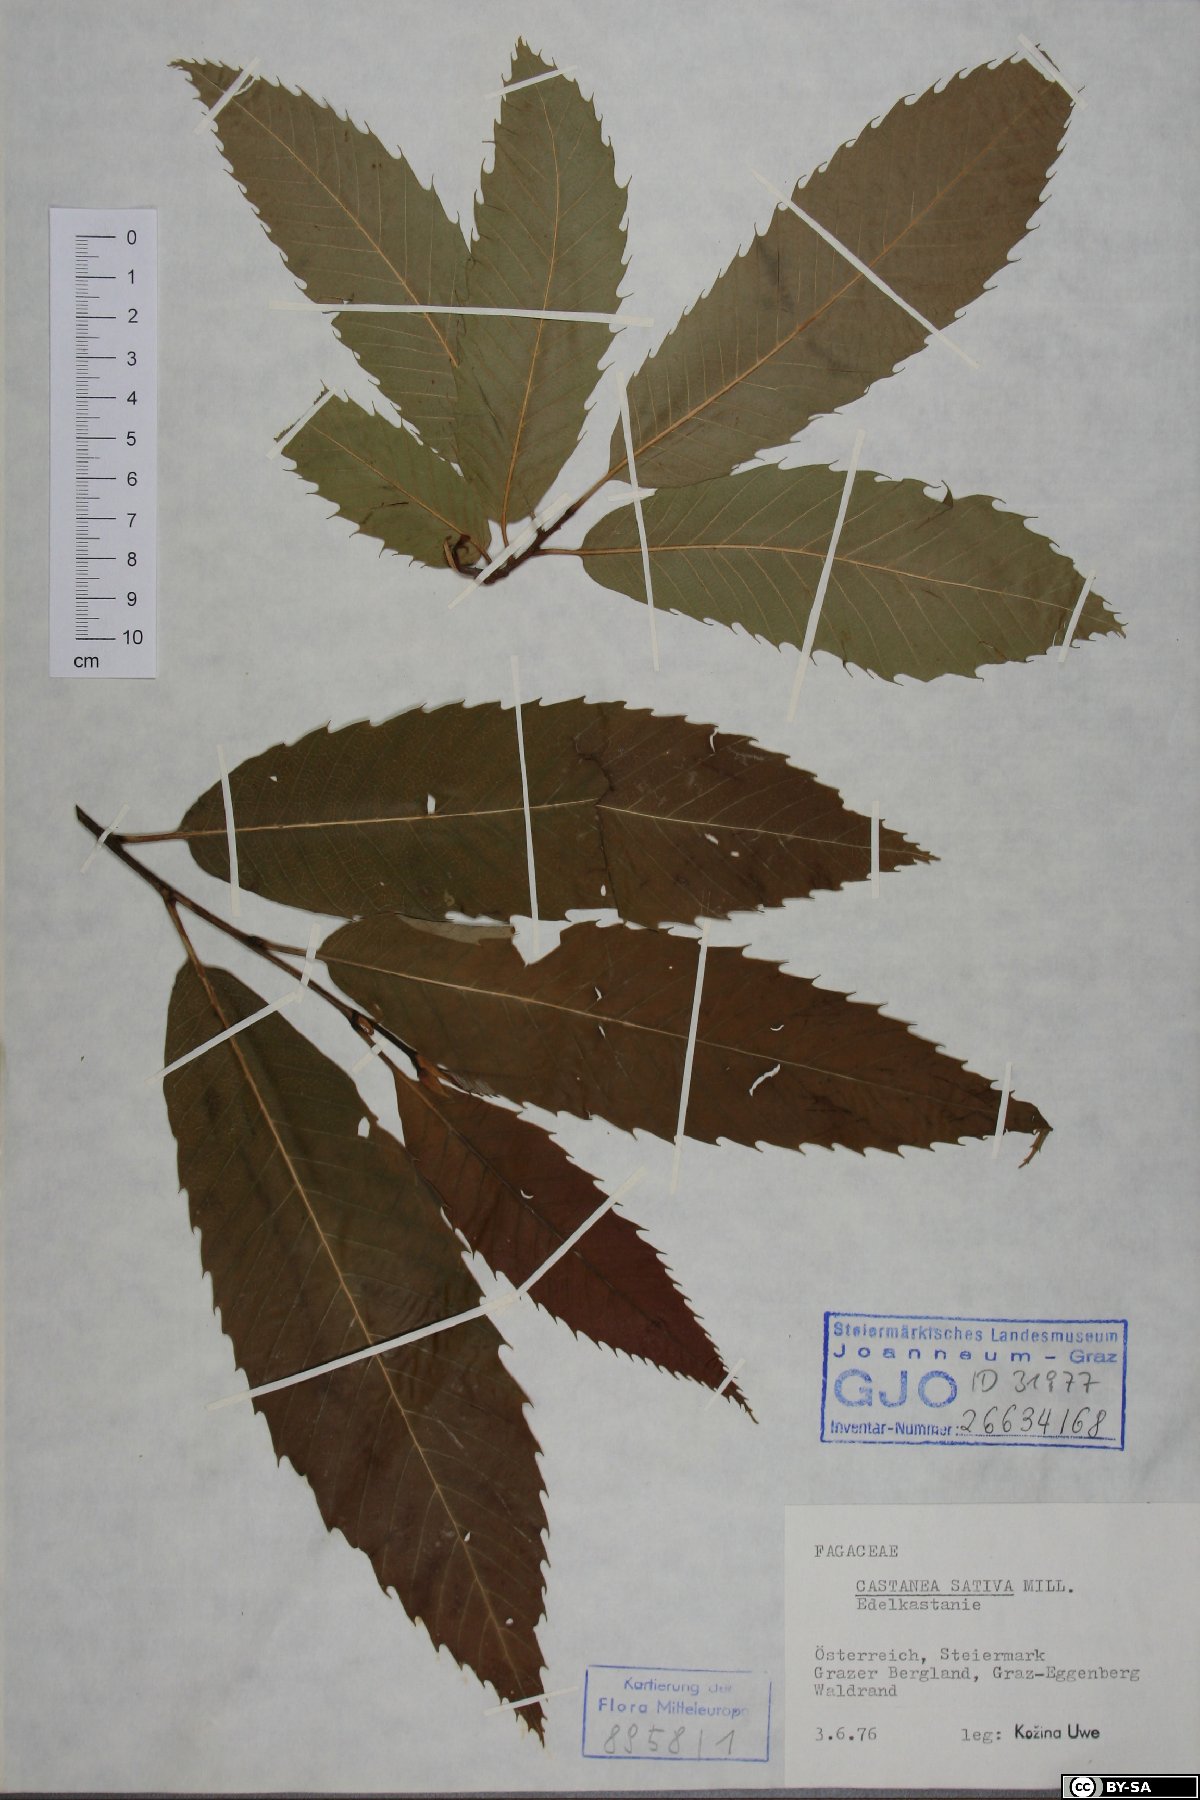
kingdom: Plantae
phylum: Tracheophyta
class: Magnoliopsida
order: Fagales
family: Fagaceae
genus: Castanea
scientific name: Castanea sativa
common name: Sweet chestnut
